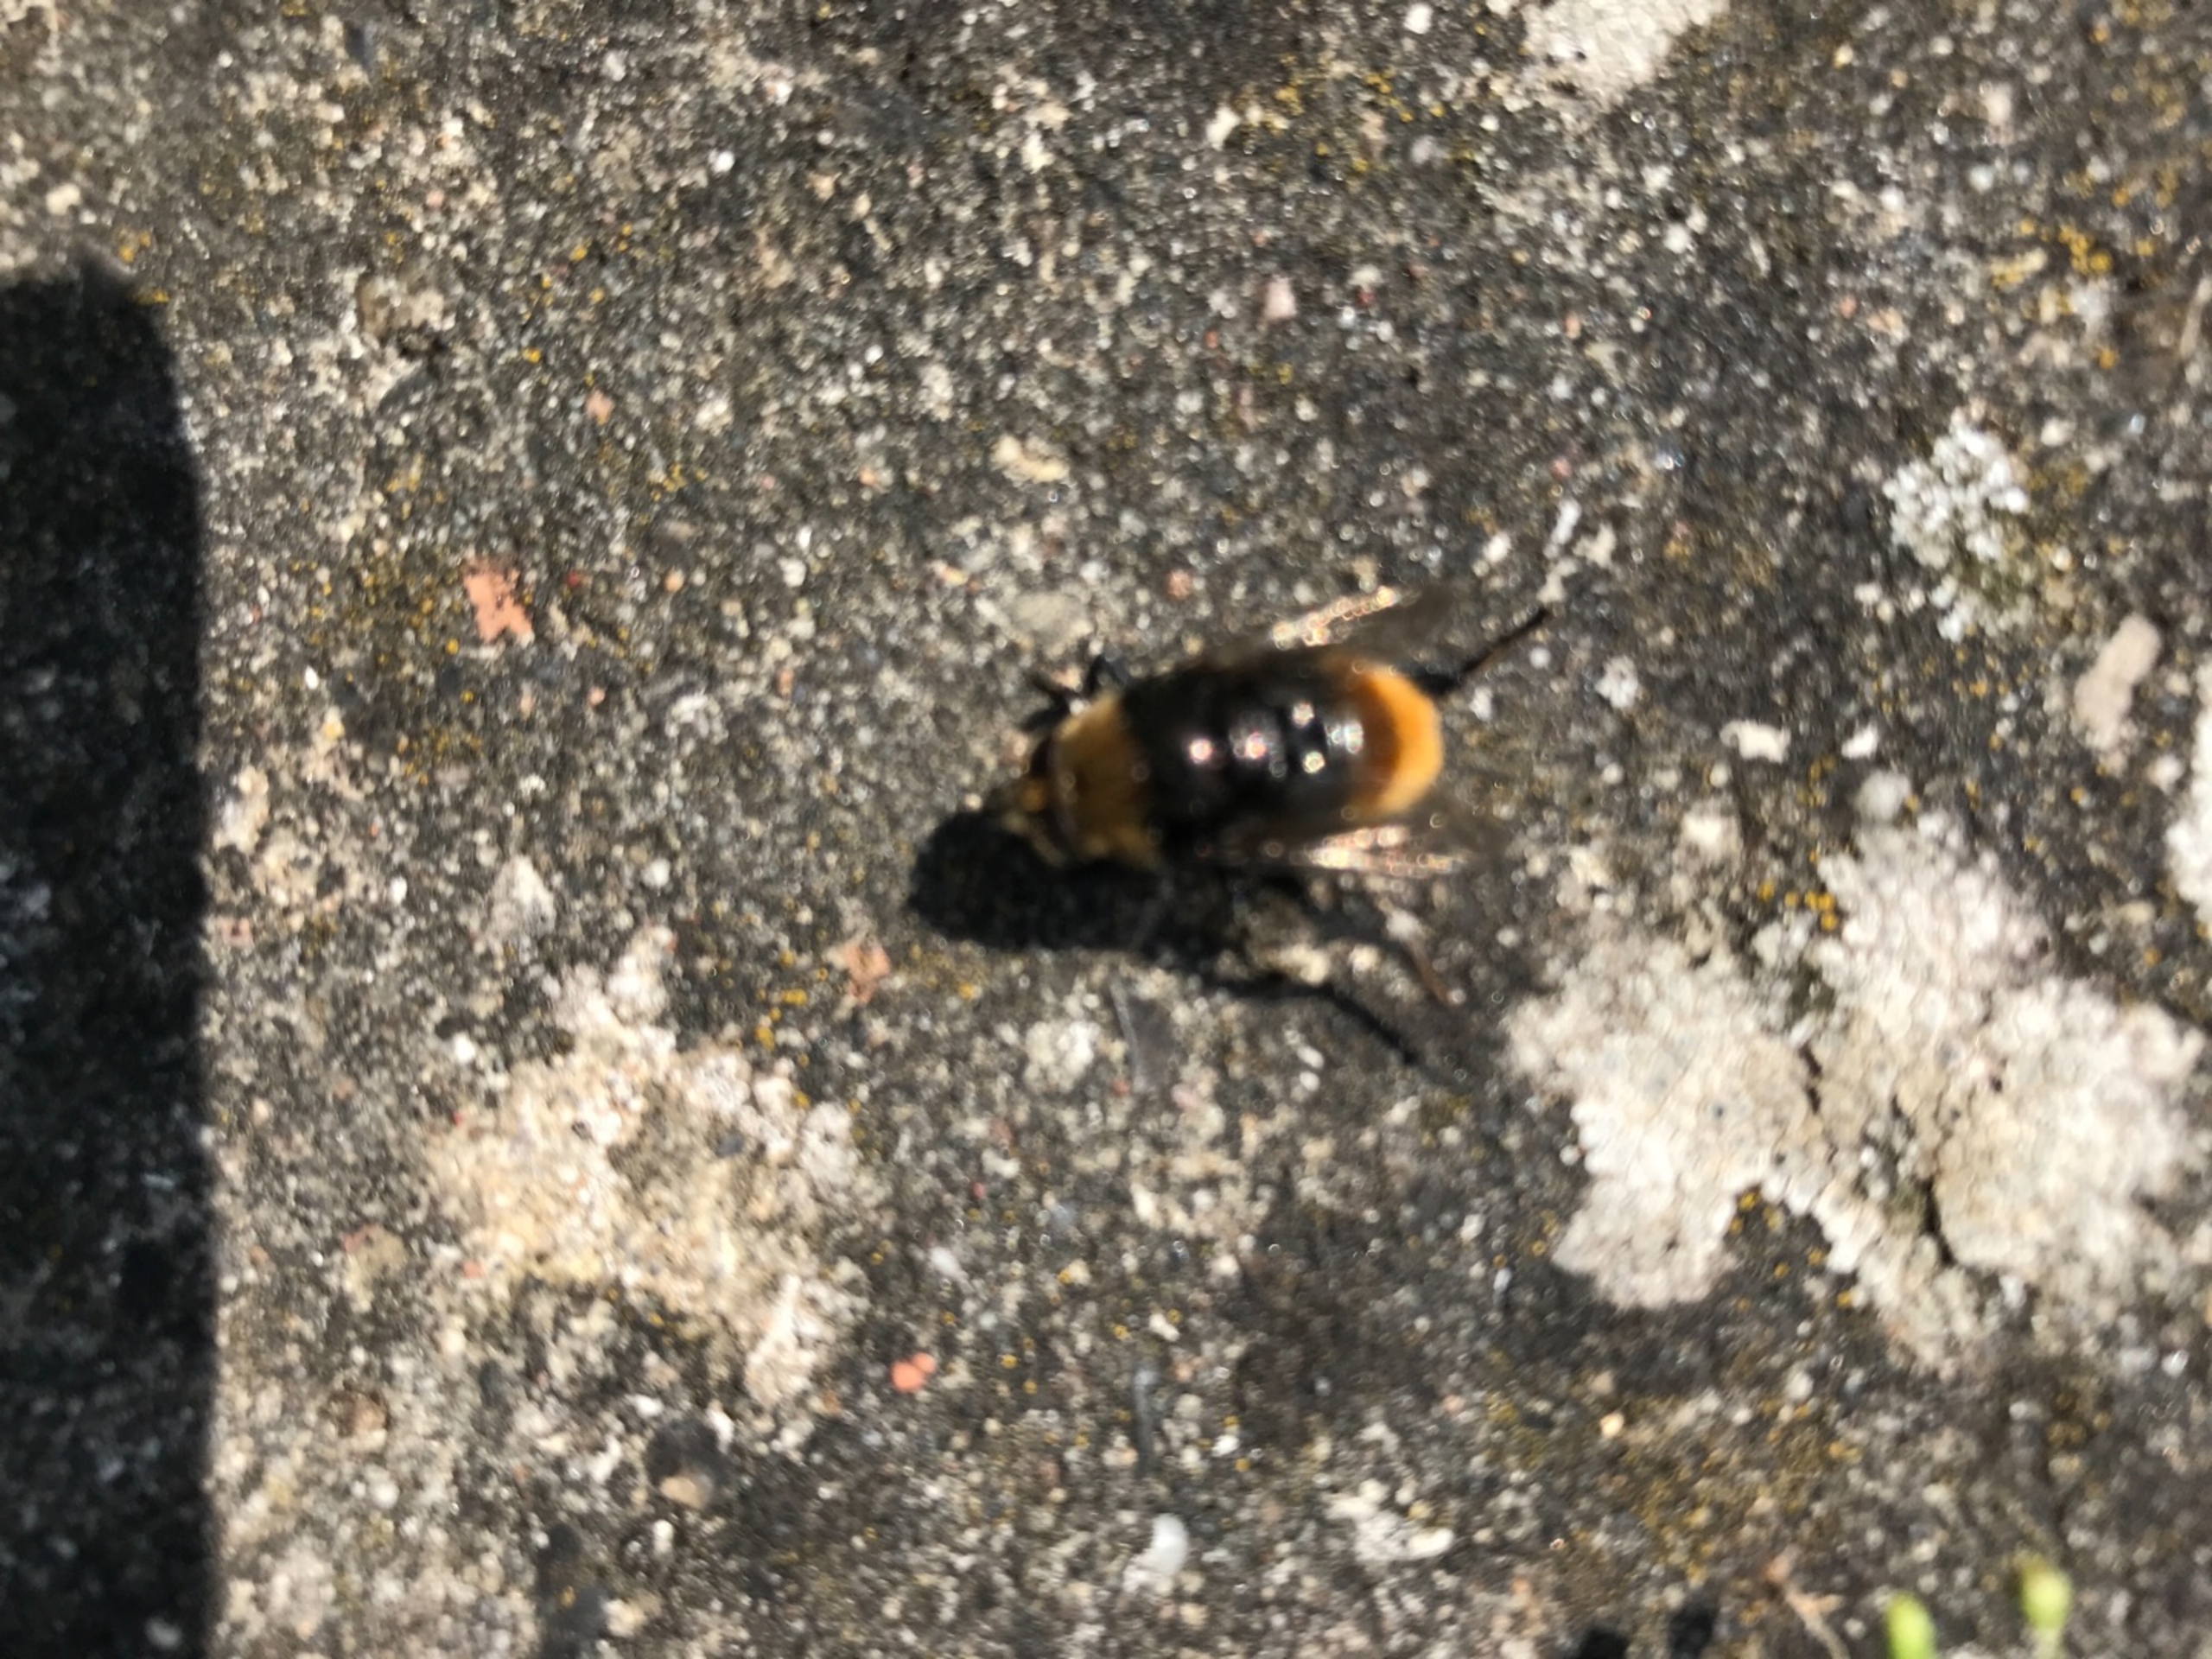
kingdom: Animalia
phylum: Arthropoda
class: Insecta
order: Diptera
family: Syrphidae
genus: Merodon
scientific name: Merodon equestris
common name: Stor narcisflue
